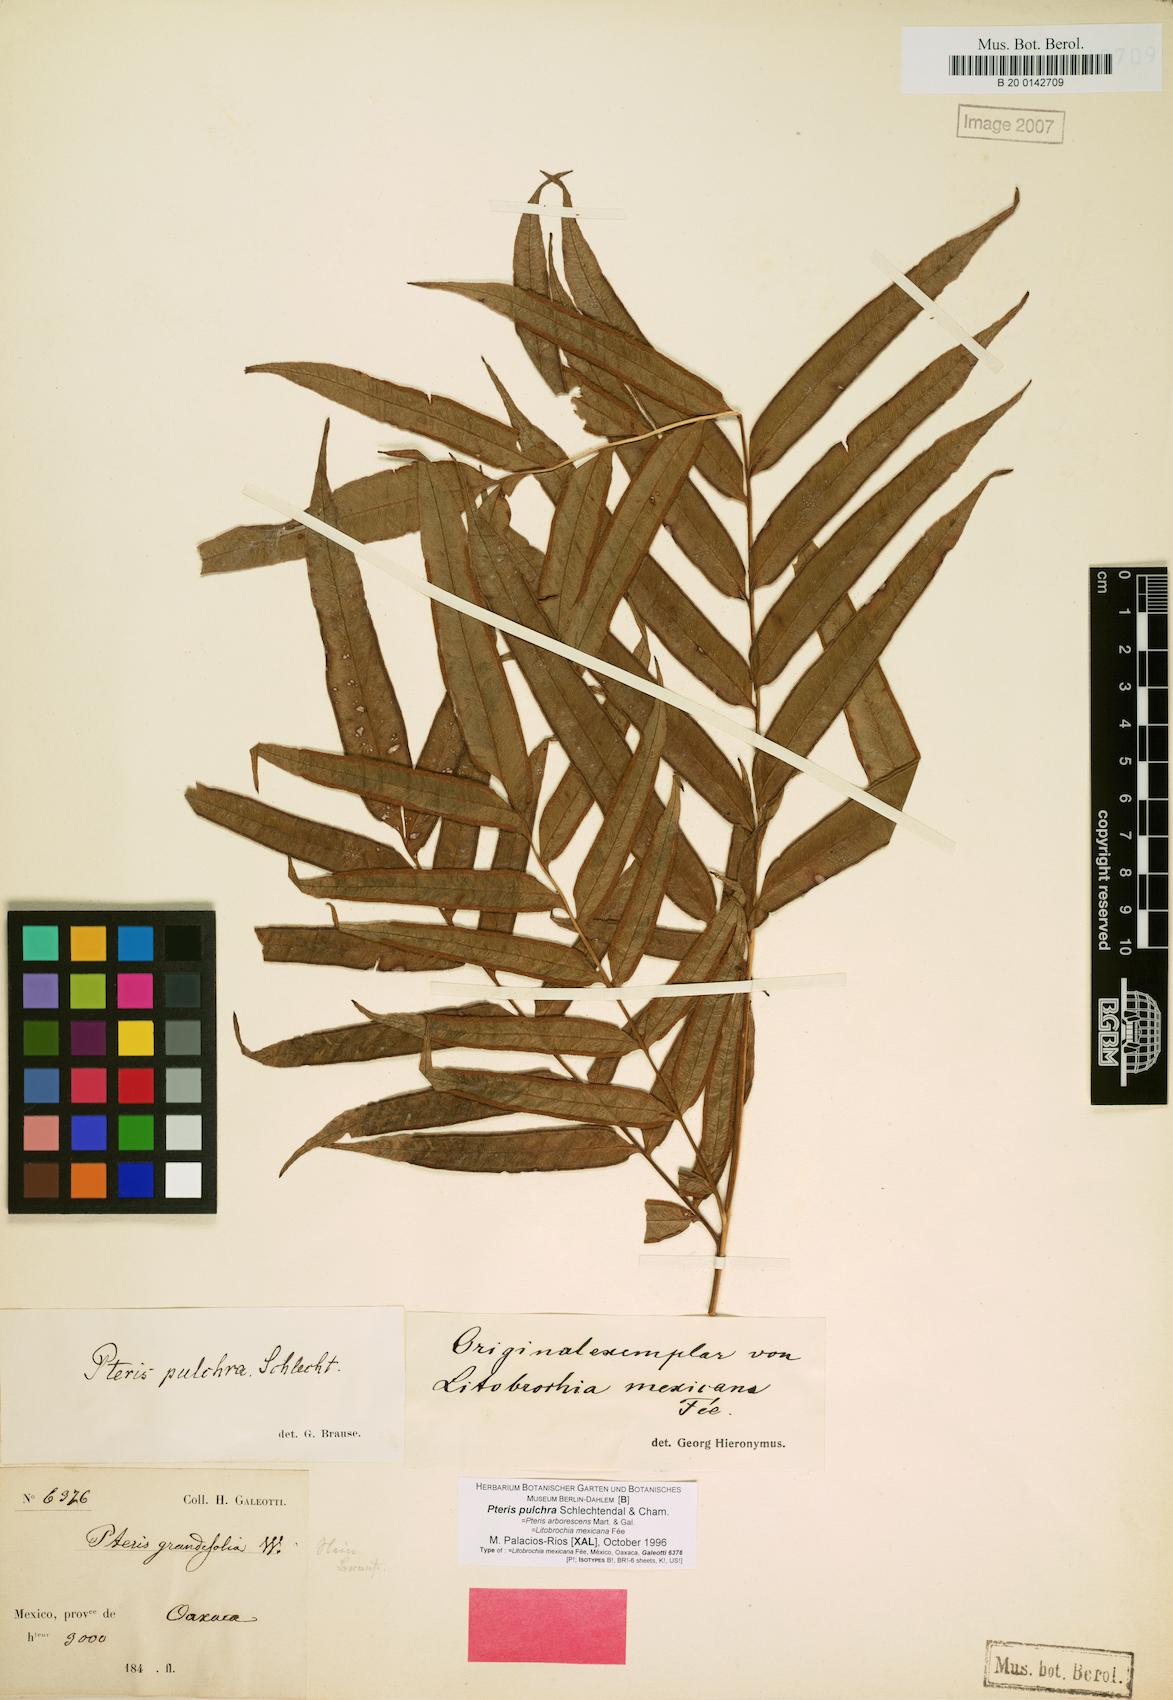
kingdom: Plantae
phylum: Tracheophyta
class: Polypodiopsida
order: Polypodiales
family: Pteridaceae
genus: Pteris
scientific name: Pteris pulchra
